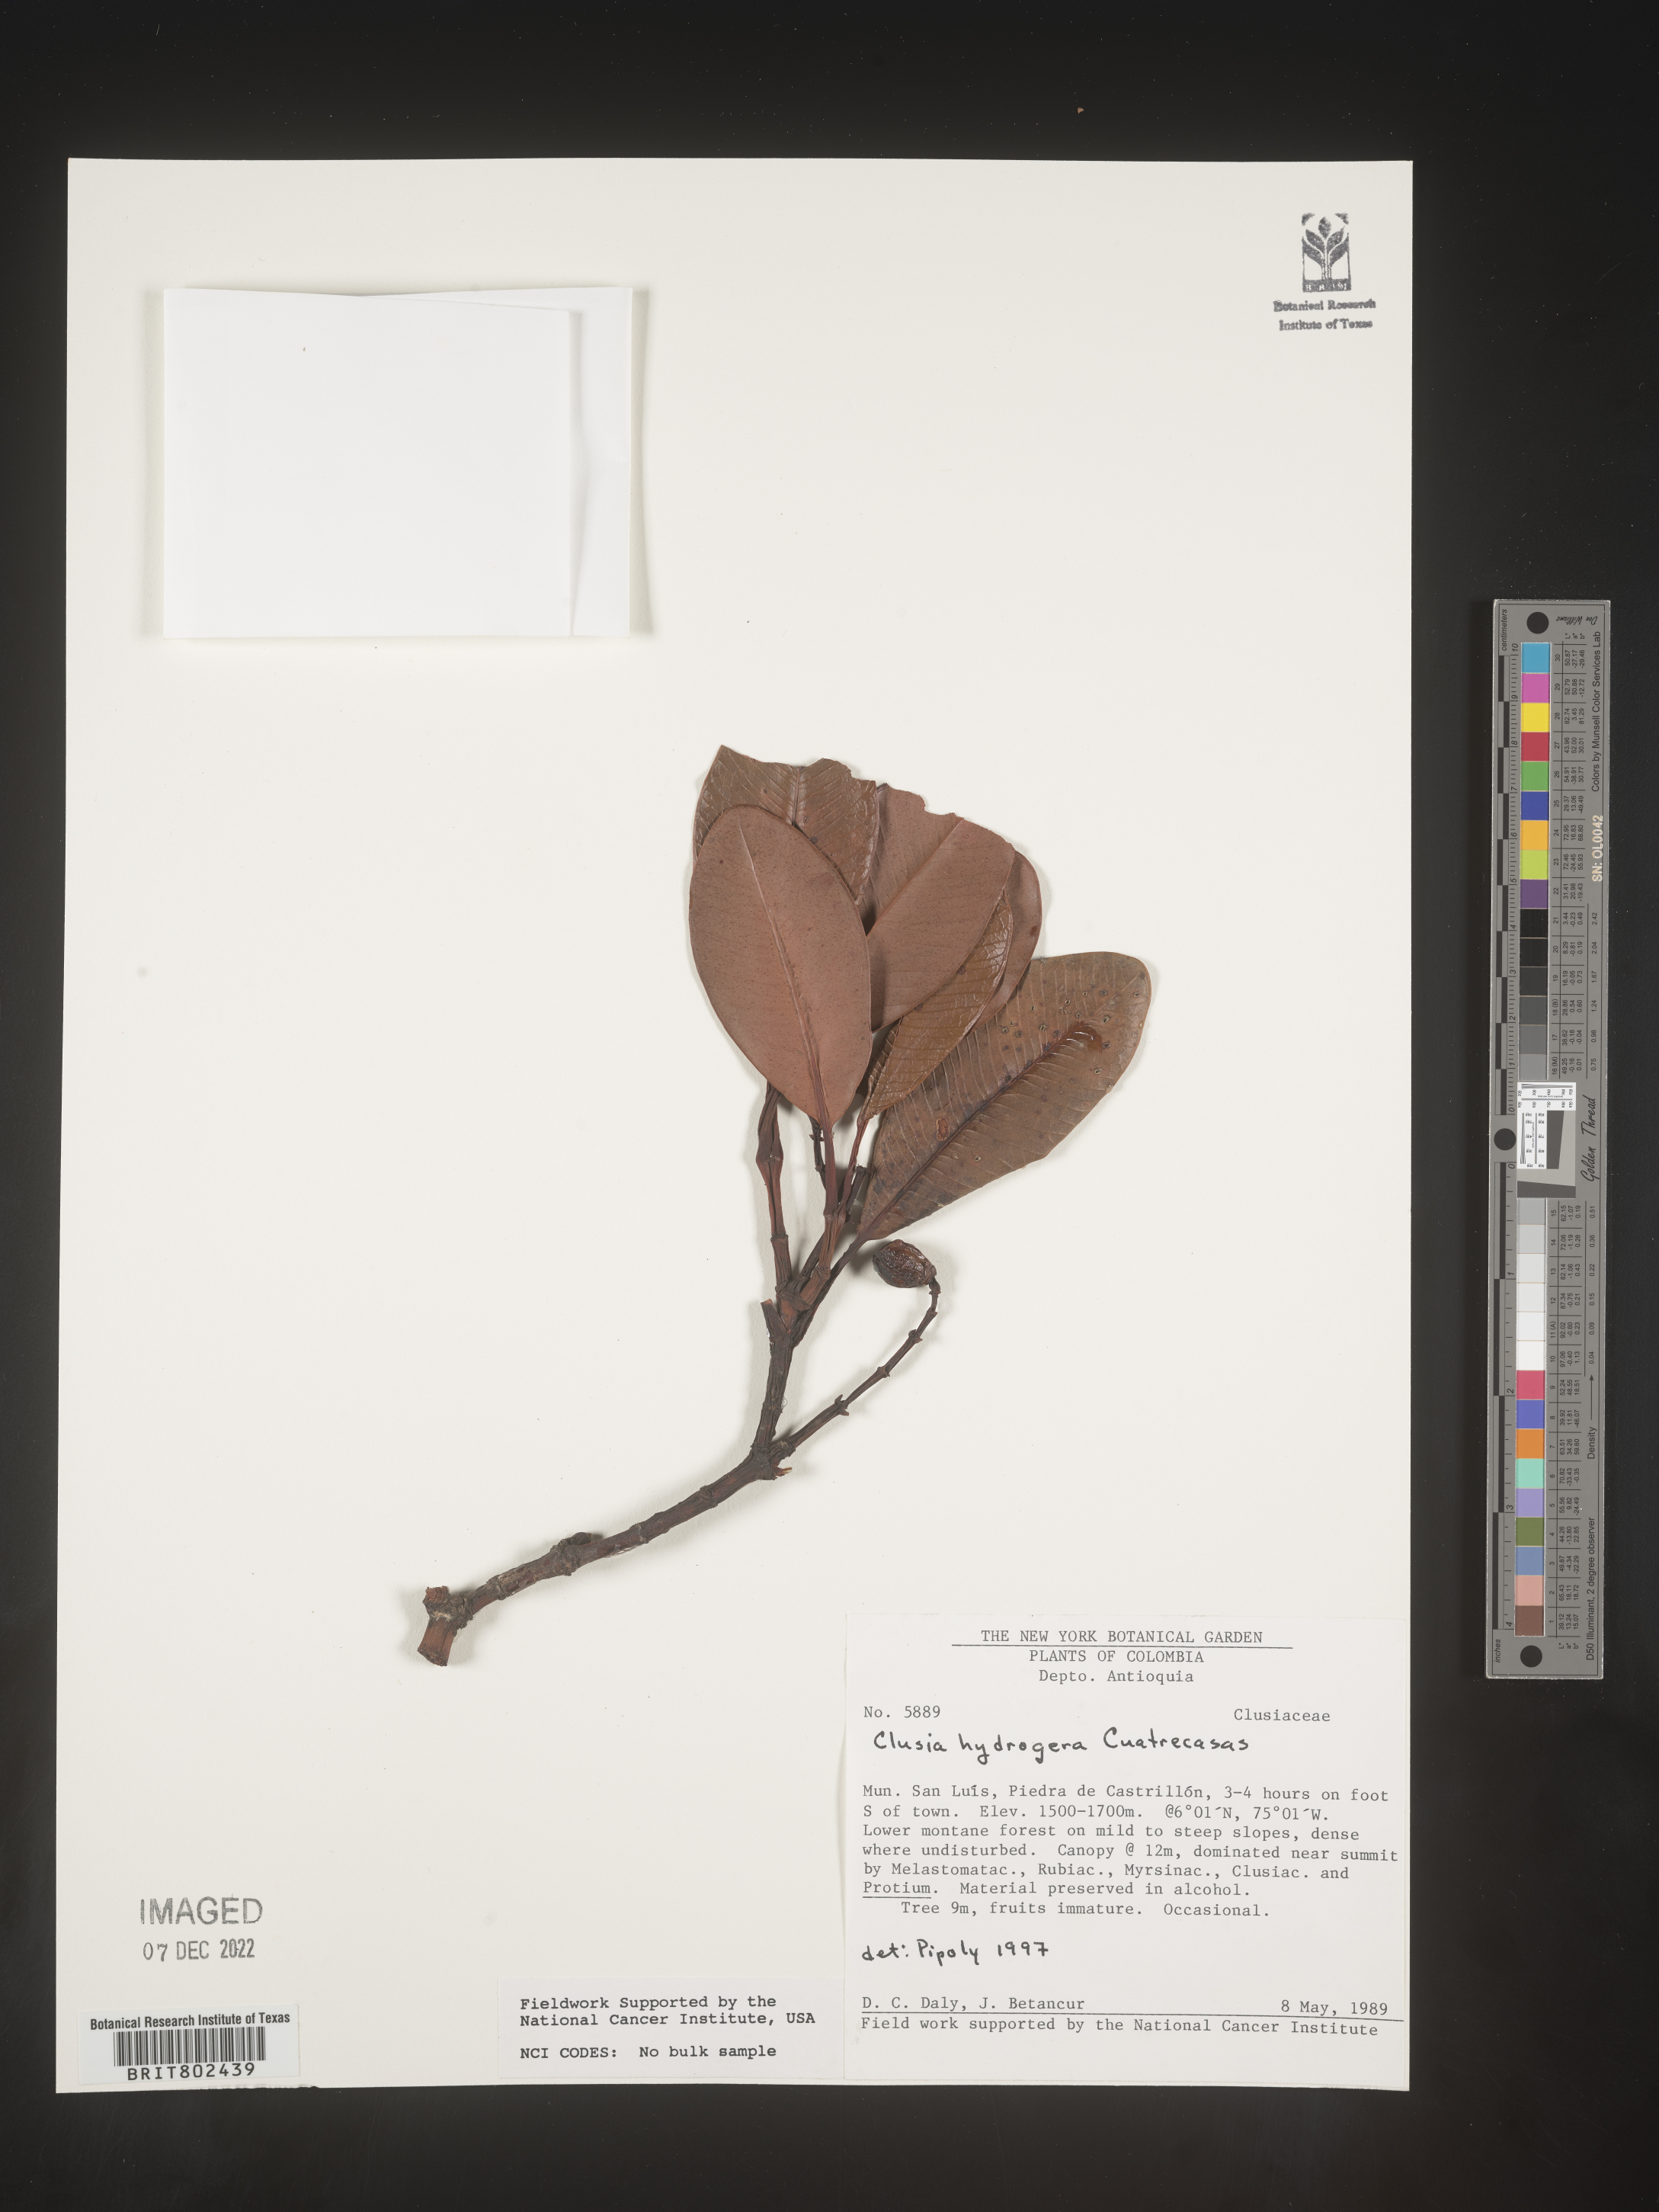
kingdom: Plantae
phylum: Tracheophyta
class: Magnoliopsida
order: Malpighiales
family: Clusiaceae
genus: Clusia
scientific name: Clusia hydrogera
